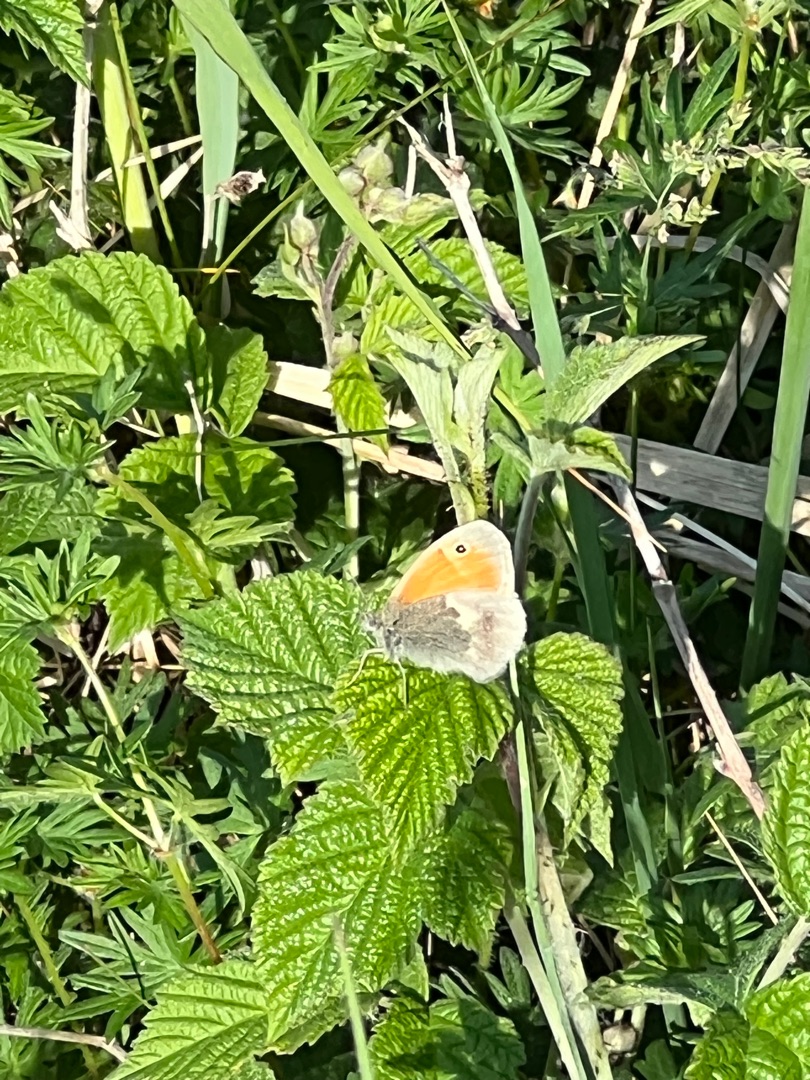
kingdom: Animalia
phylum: Arthropoda
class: Insecta
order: Lepidoptera
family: Nymphalidae
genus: Coenonympha
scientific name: Coenonympha pamphilus
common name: Okkergul randøje
